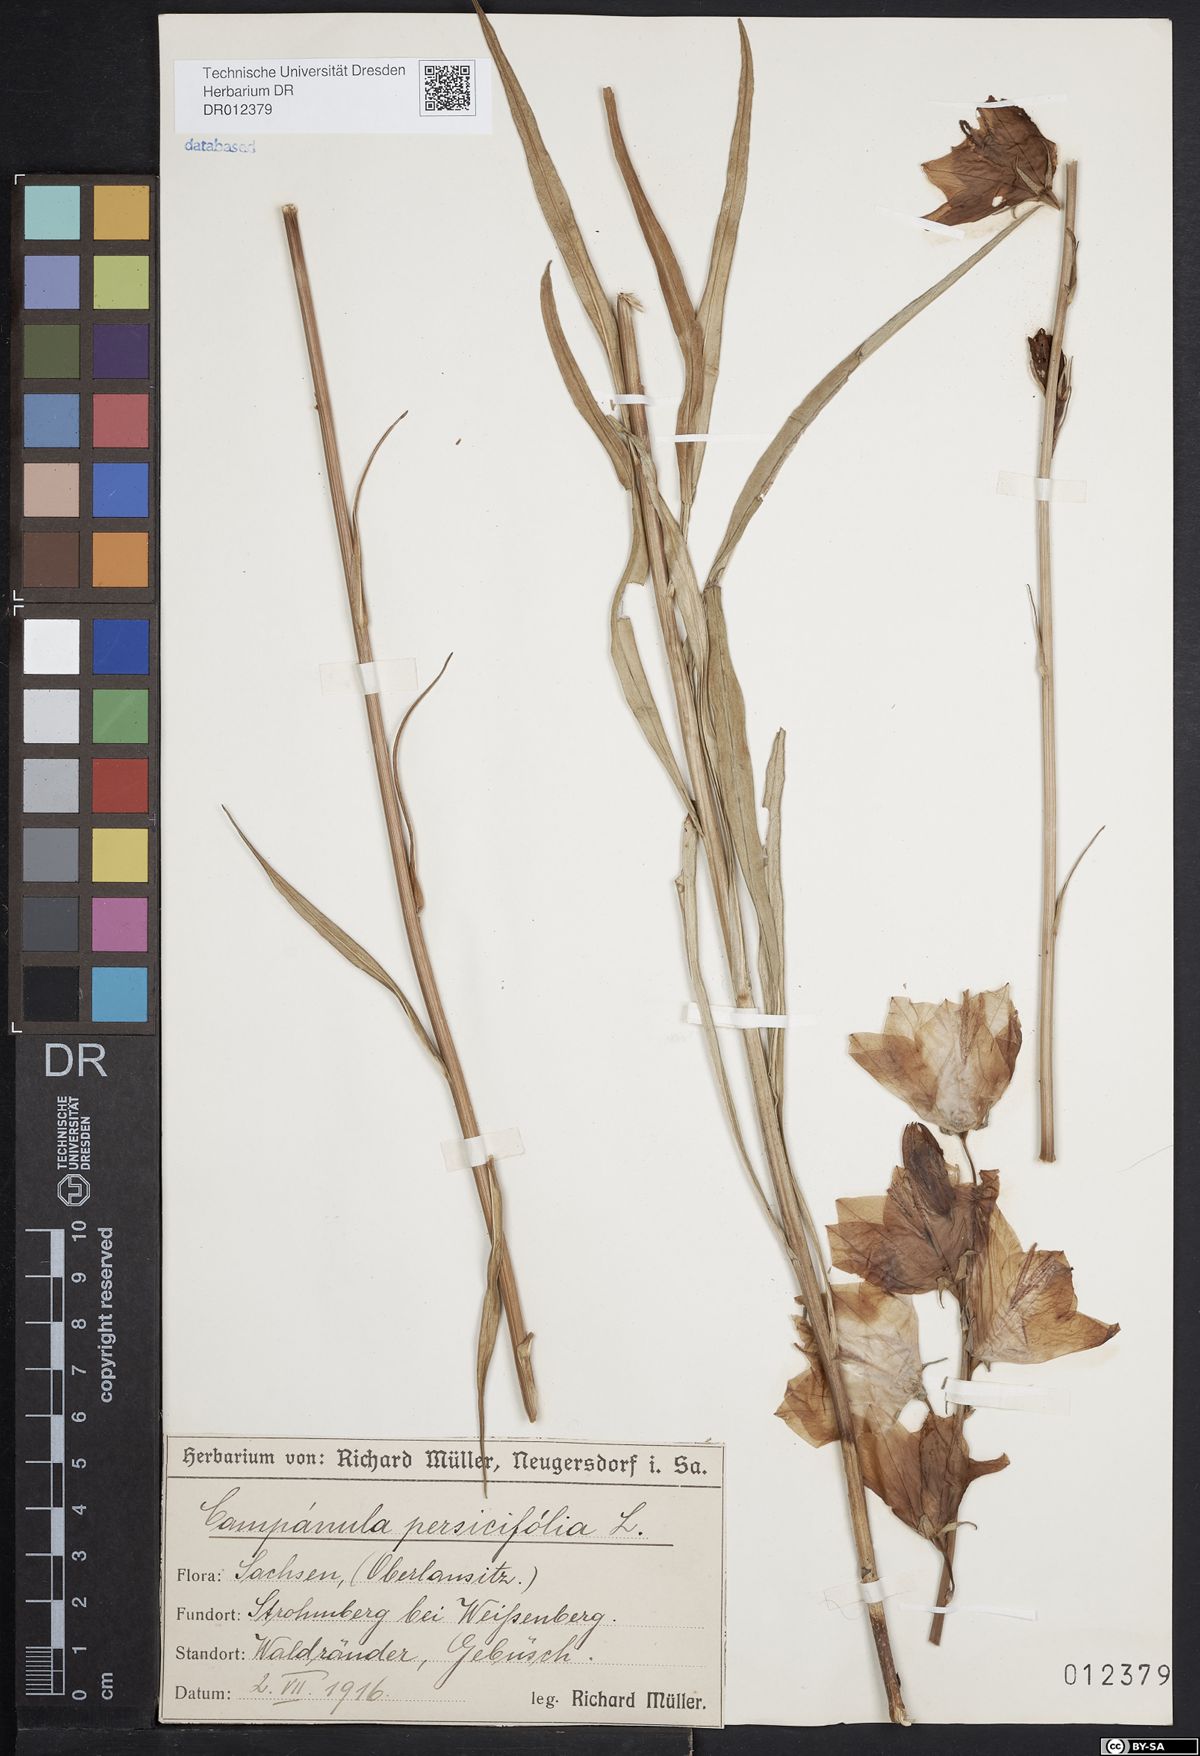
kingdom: Plantae
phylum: Tracheophyta
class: Magnoliopsida
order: Asterales
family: Campanulaceae
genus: Campanula
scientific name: Campanula persicifolia
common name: Peach-leaved bellflower
